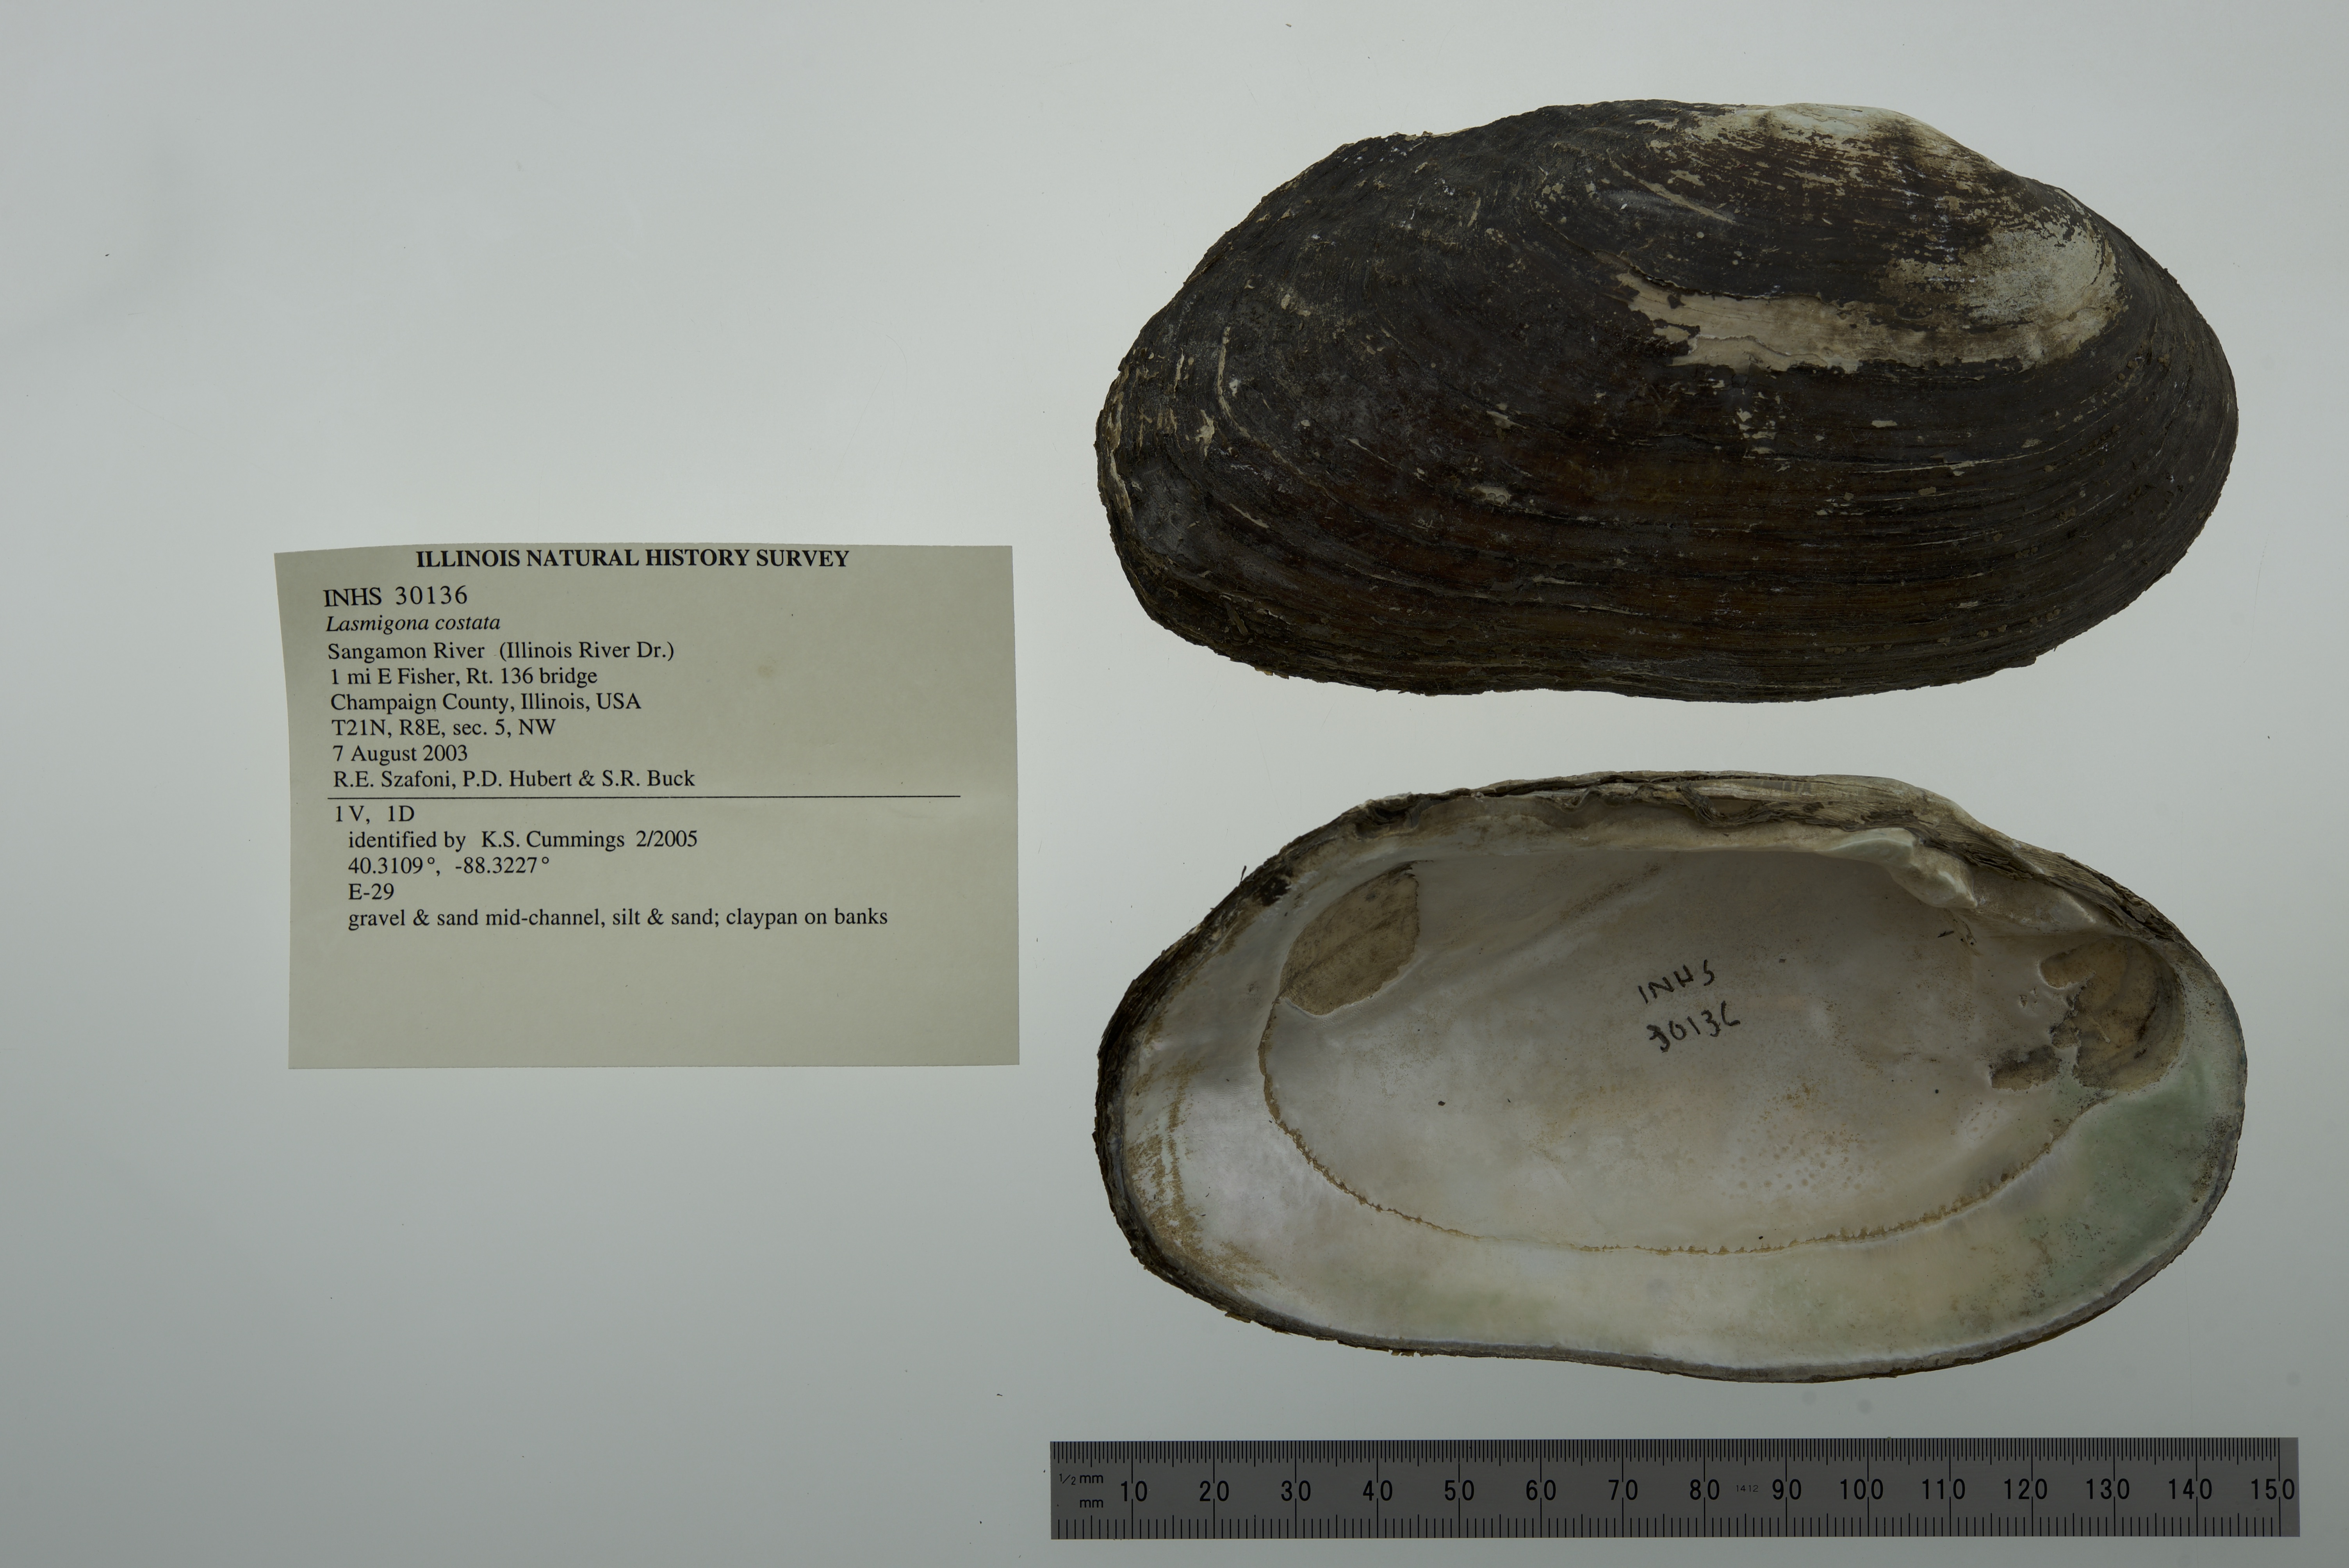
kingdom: Animalia
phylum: Mollusca
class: Bivalvia
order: Unionida
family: Unionidae
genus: Lasmigona
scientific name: Lasmigona costata
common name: Flutedshell
